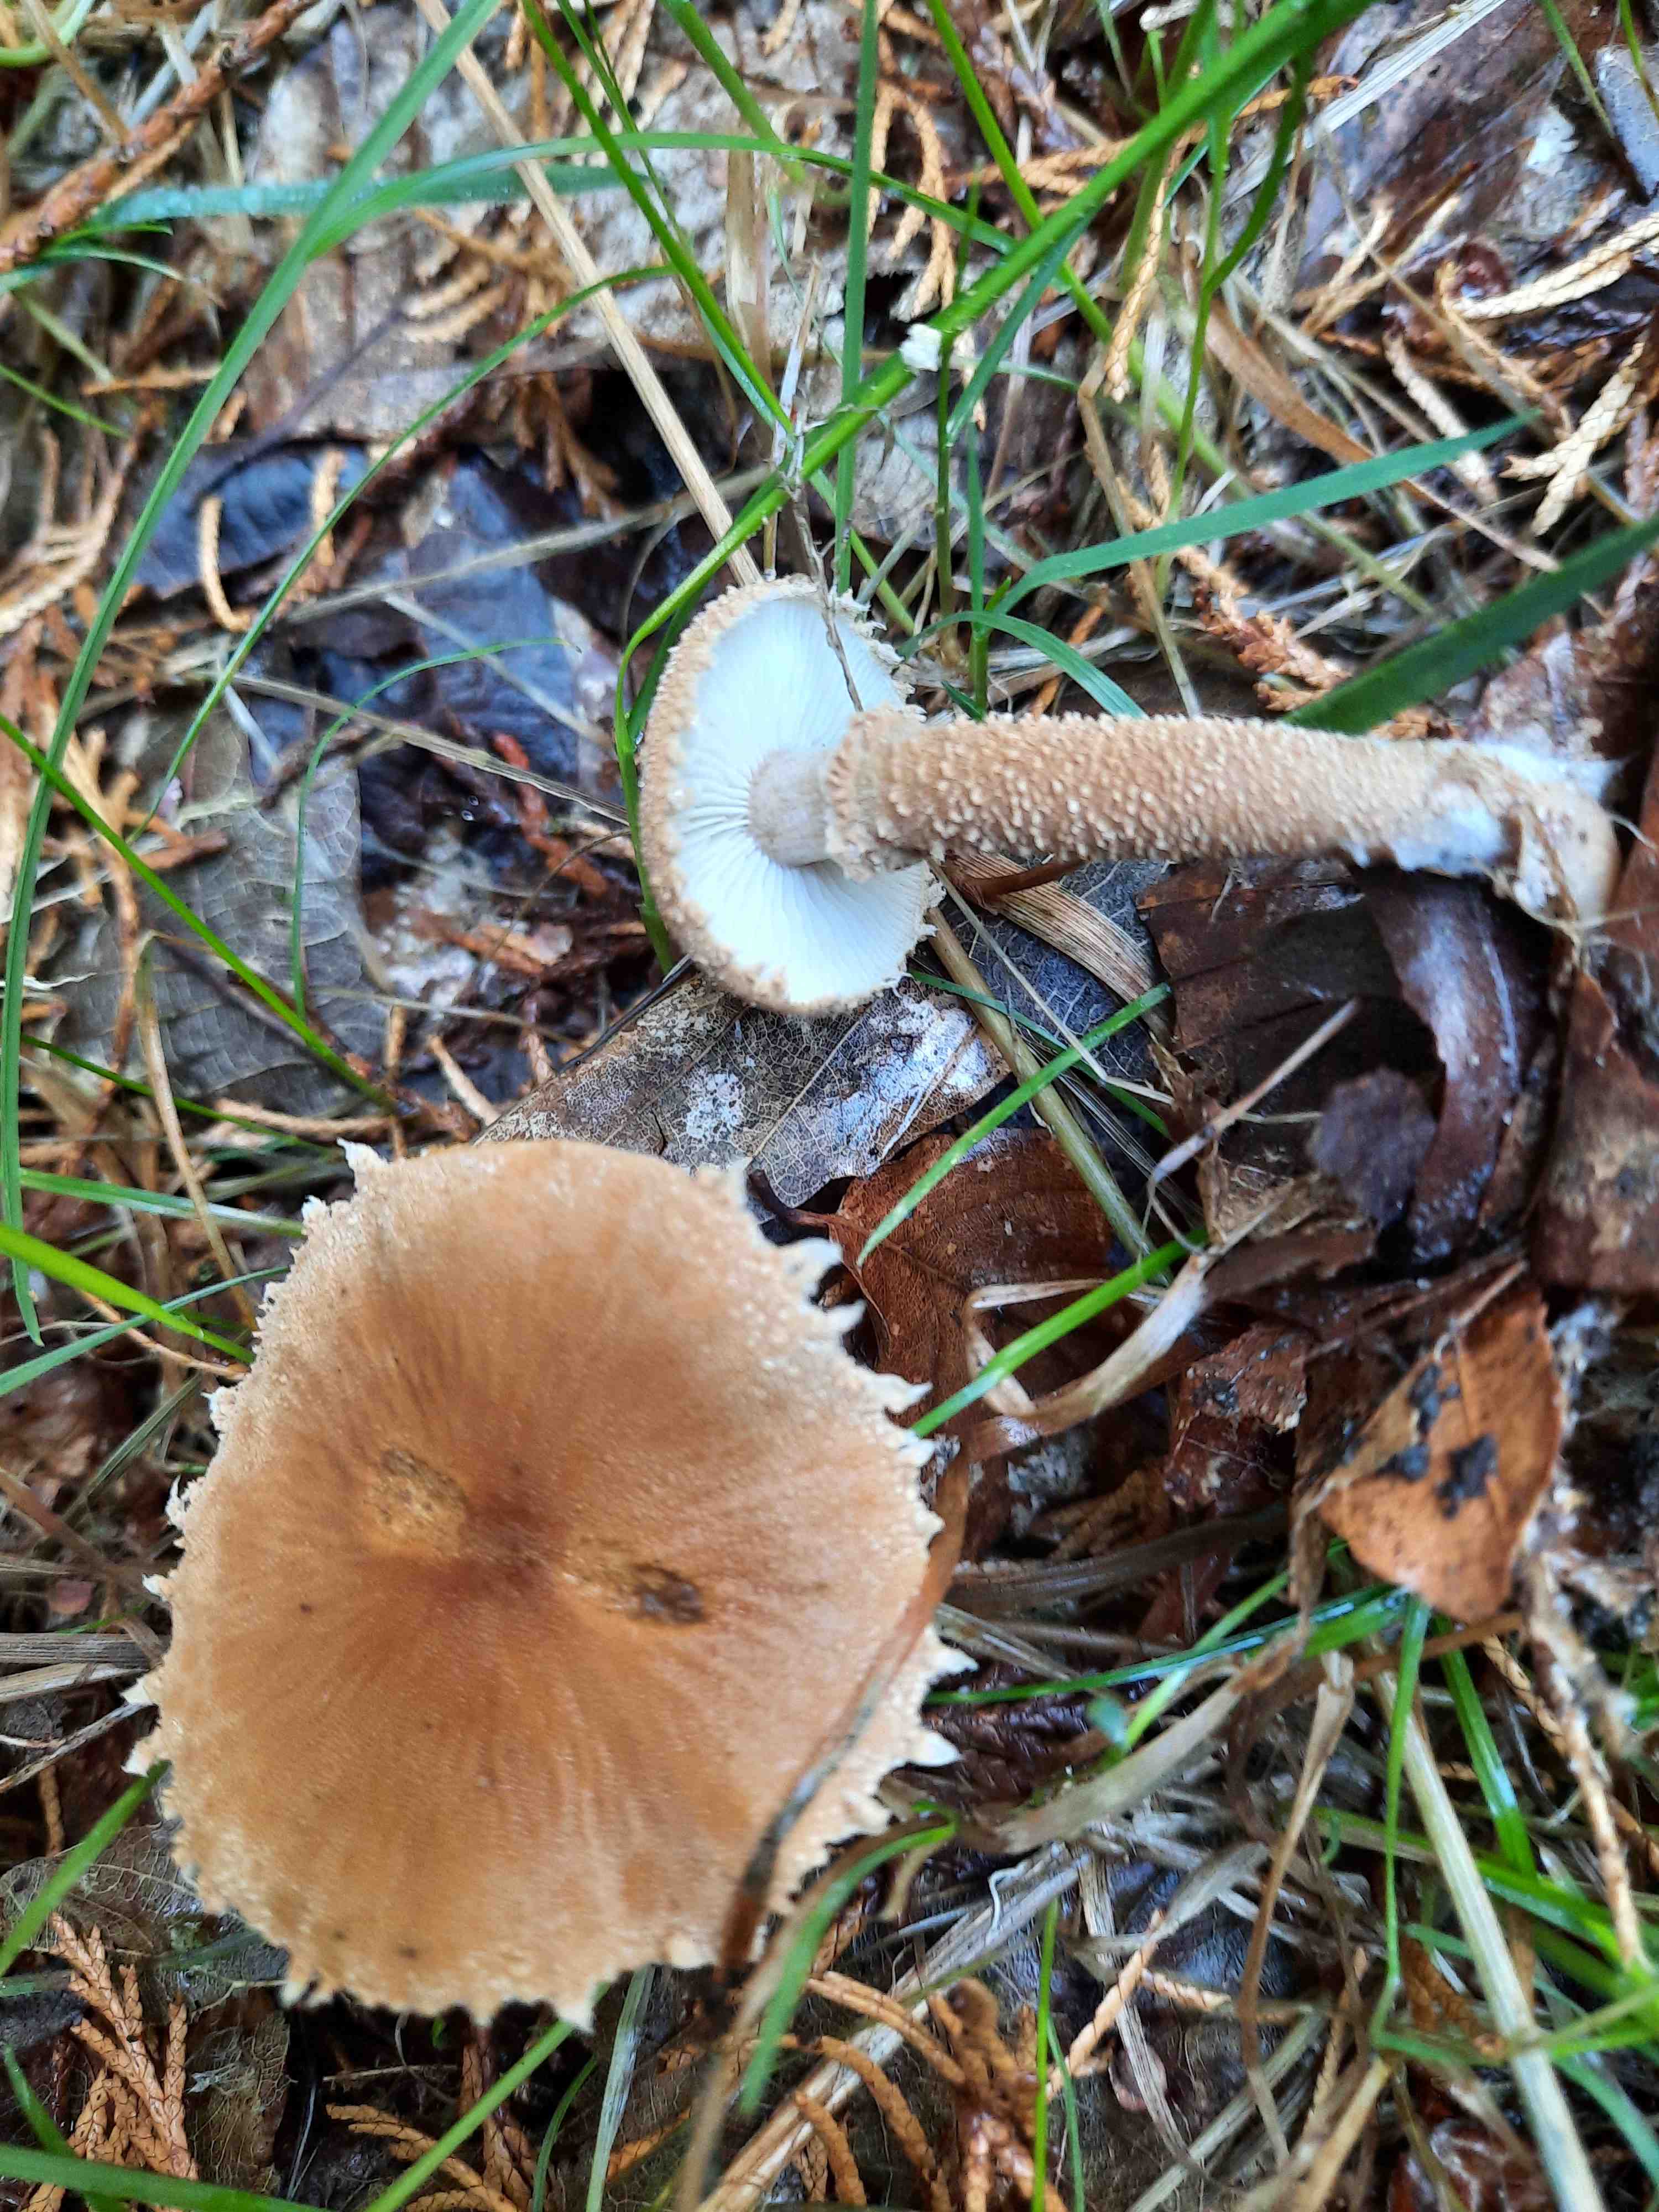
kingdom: Fungi
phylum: Basidiomycota
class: Agaricomycetes
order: Agaricales
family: Tricholomataceae
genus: Cystoderma
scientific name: Cystoderma amianthinum
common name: okkergul grynhat
